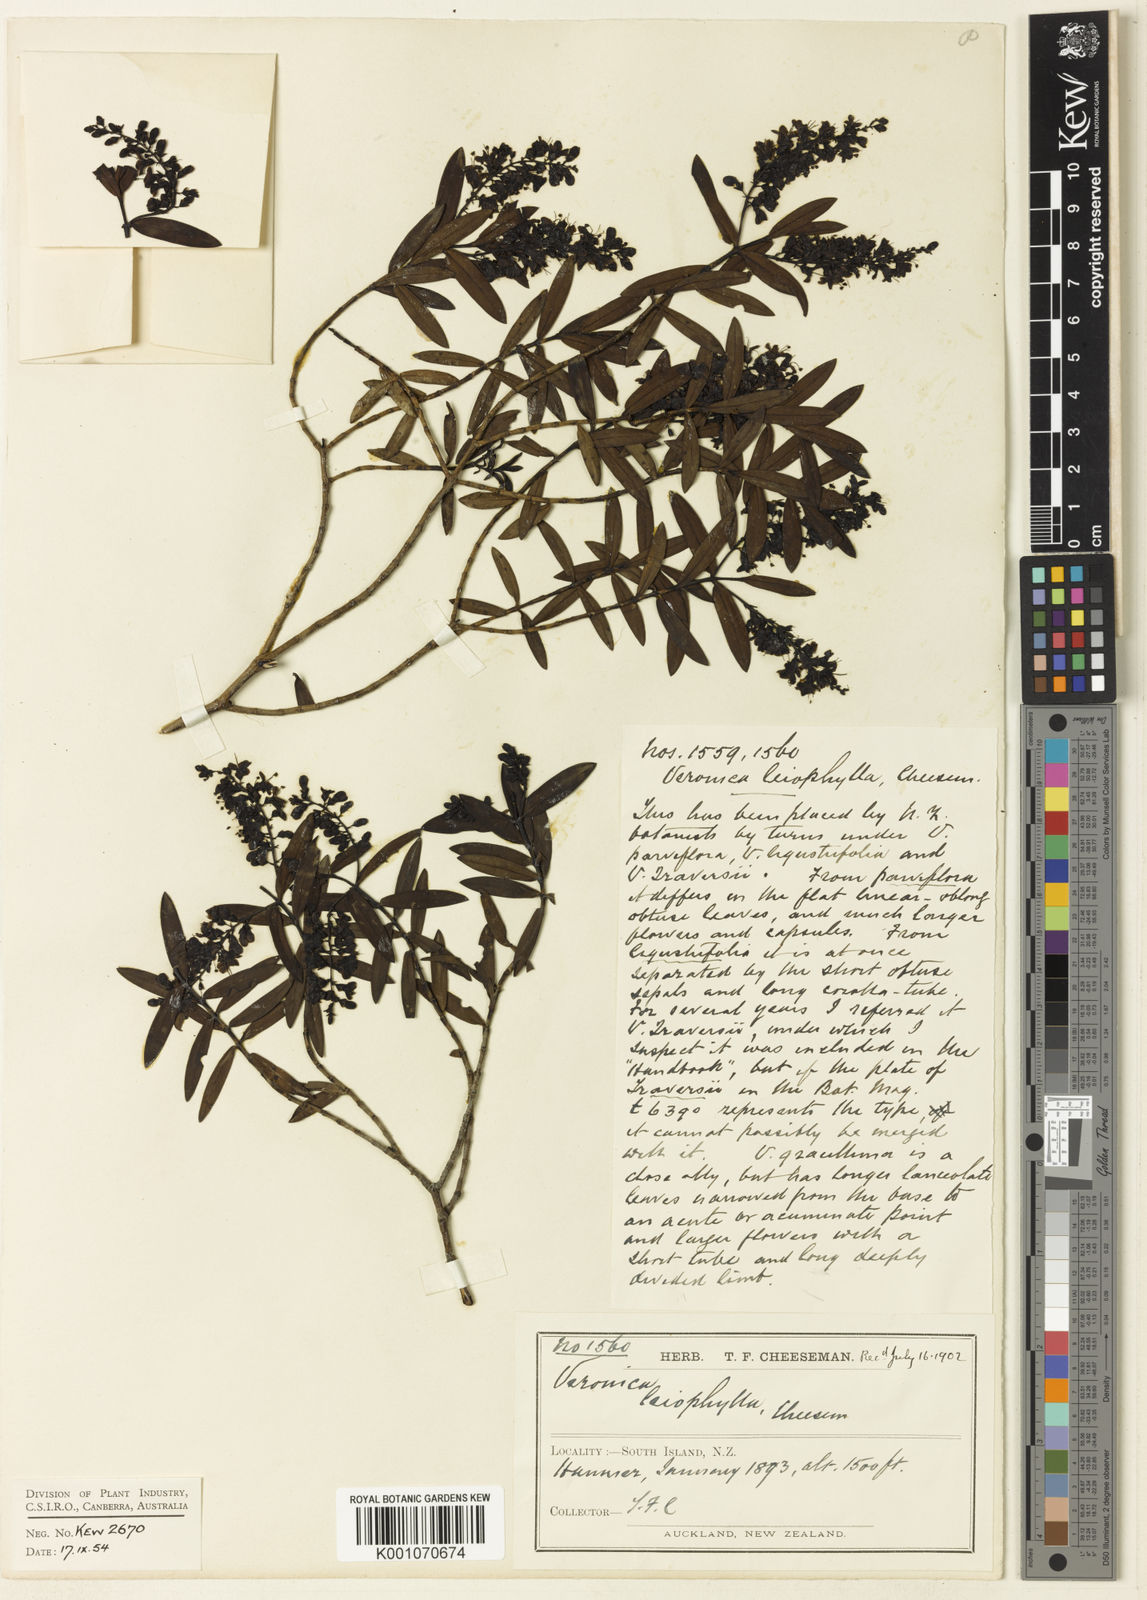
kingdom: Plantae
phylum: Tracheophyta
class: Magnoliopsida
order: Lamiales
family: Plantaginaceae
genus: Veronica
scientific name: Veronica leiophylla
